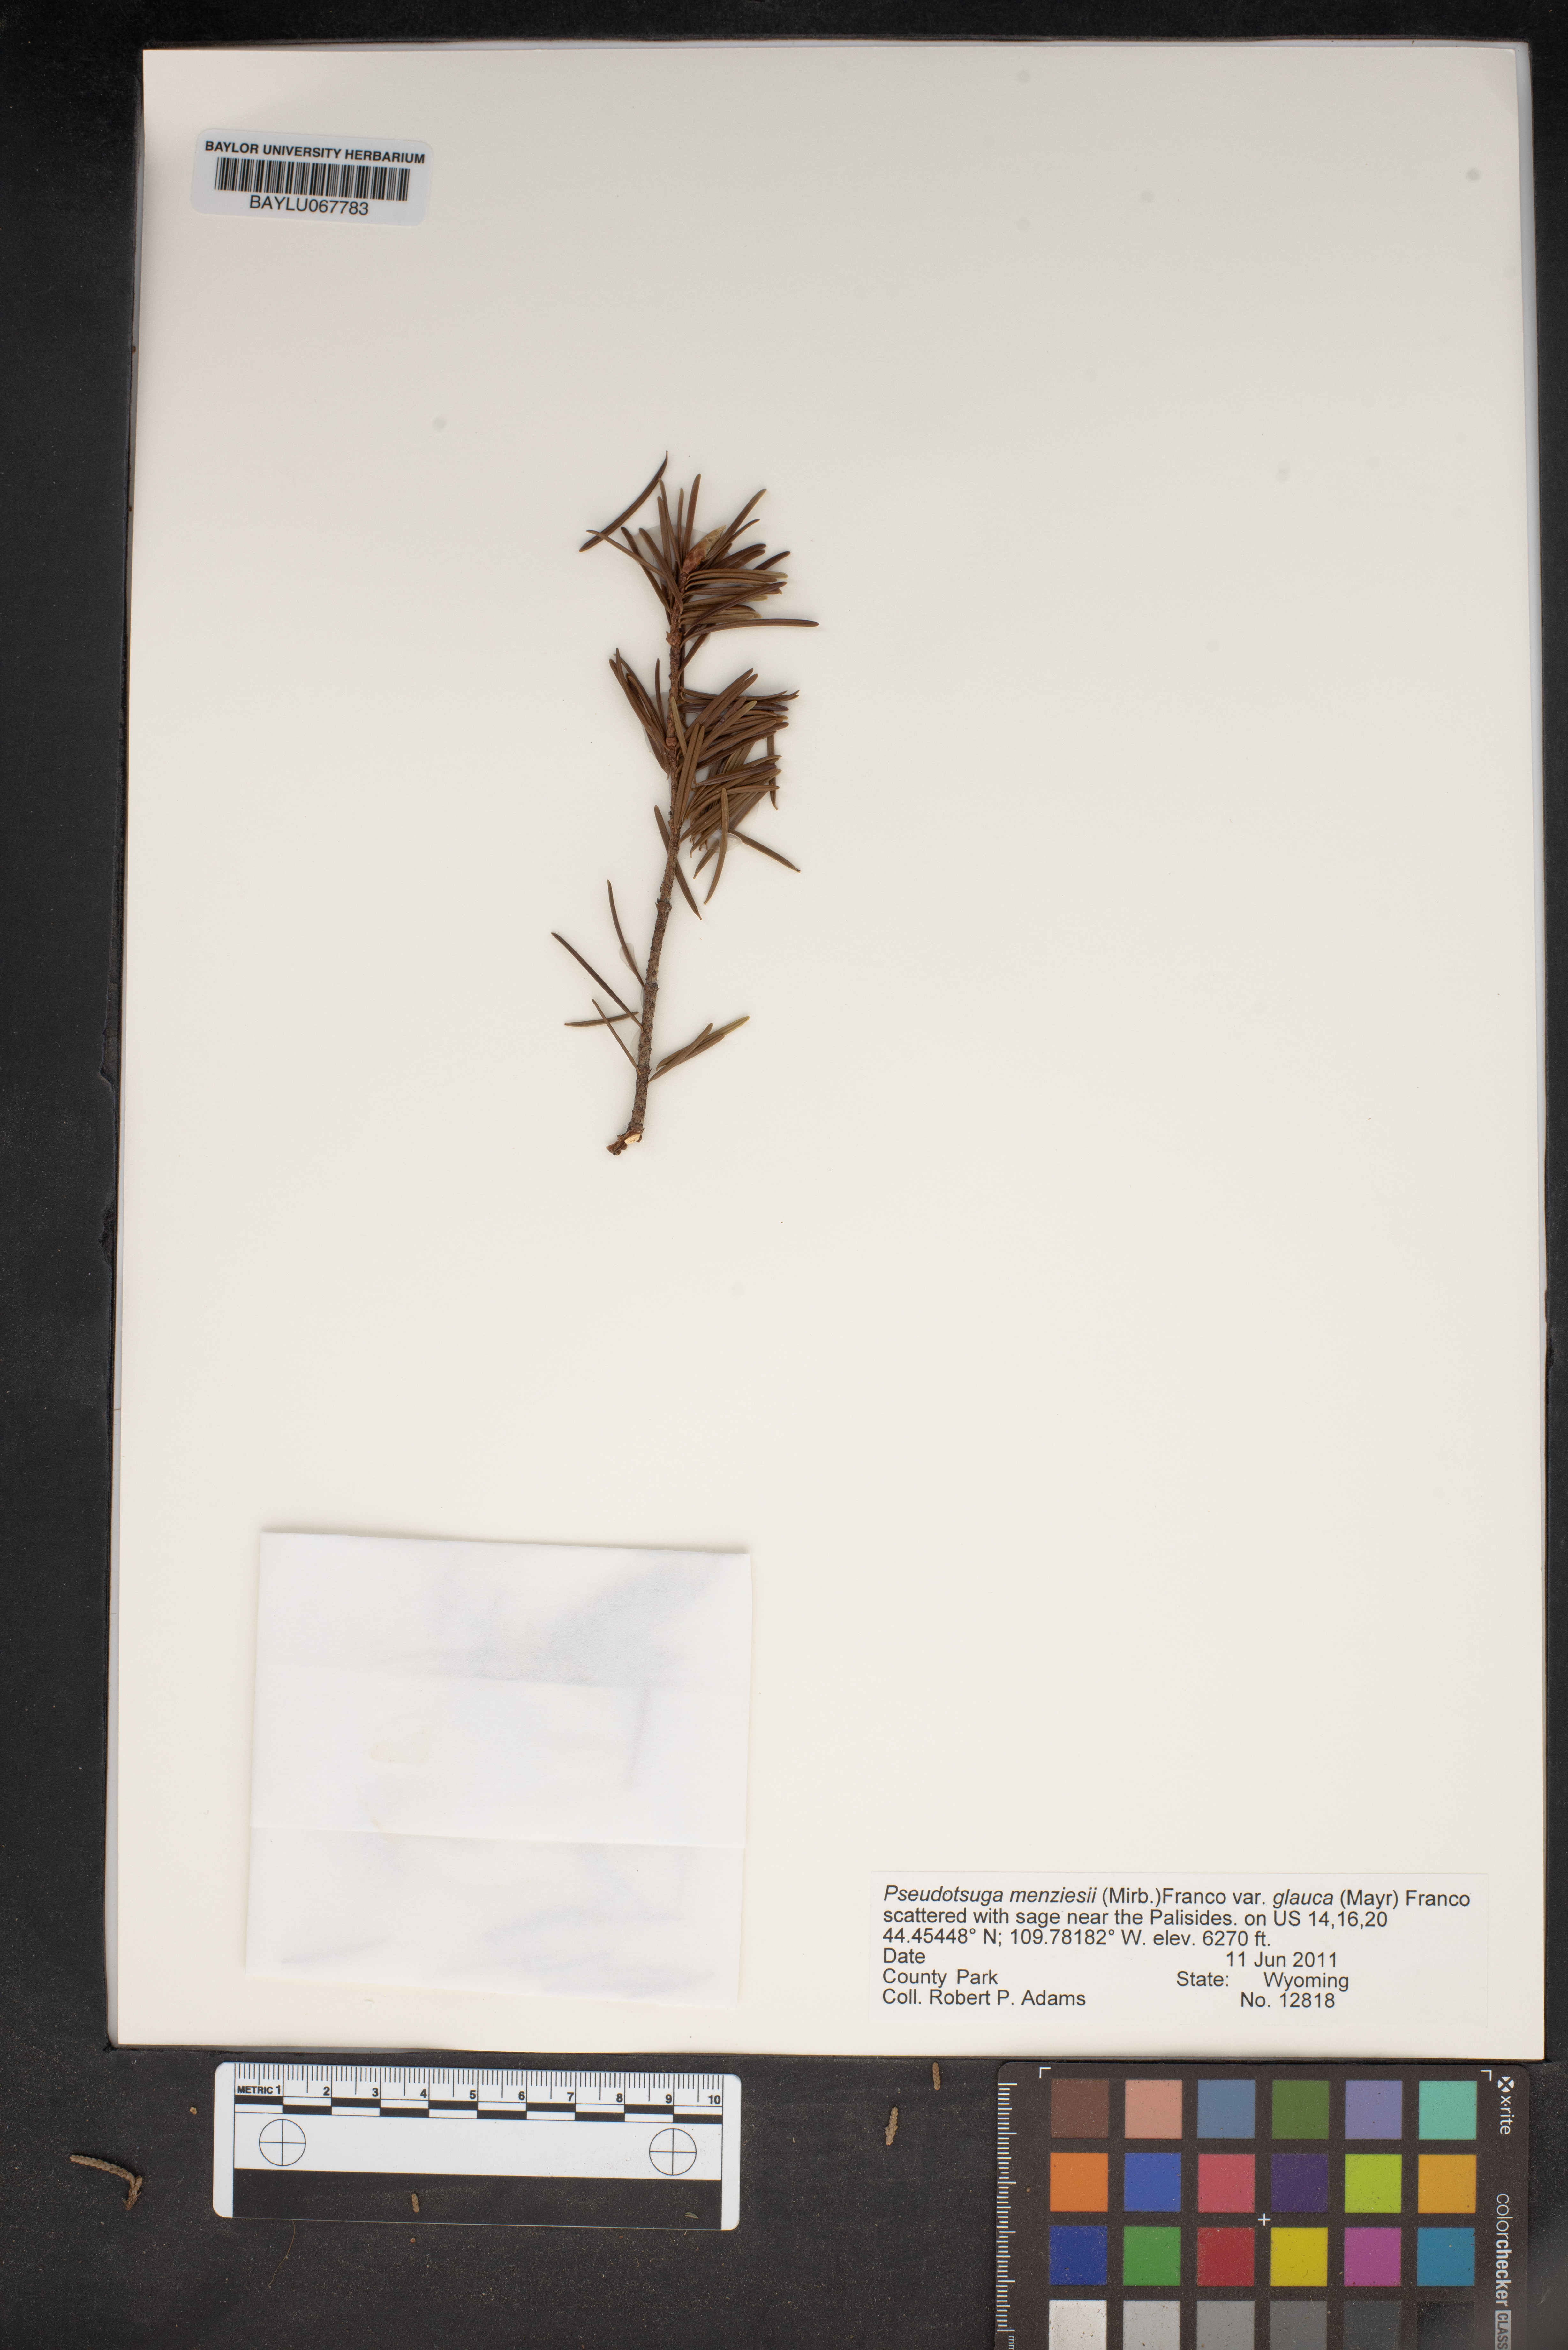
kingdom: Plantae
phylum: Tracheophyta
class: Pinopsida
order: Pinales
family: Pinaceae
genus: Pseudotsuga
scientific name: Pseudotsuga menziesii
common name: Douglas fir
